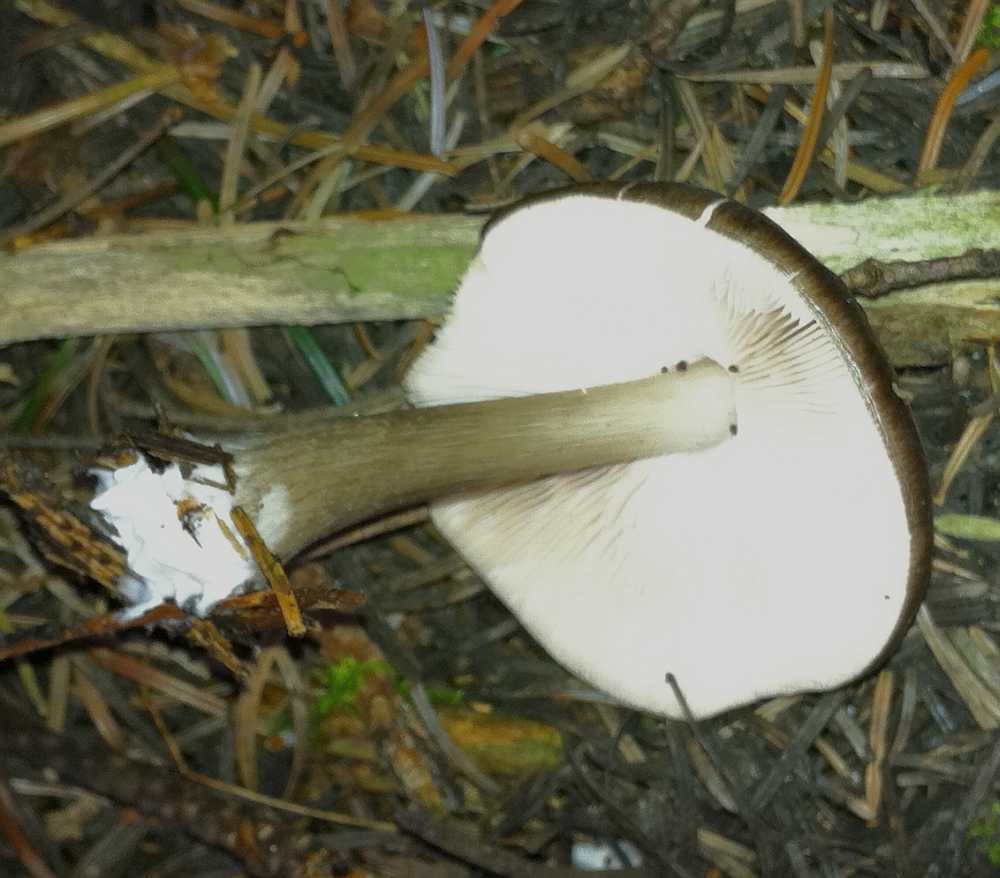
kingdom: Fungi
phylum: Basidiomycota
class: Agaricomycetes
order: Agaricales
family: Pluteaceae
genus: Pluteus
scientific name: Pluteus cervinus
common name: sodfarvet skærmhat
